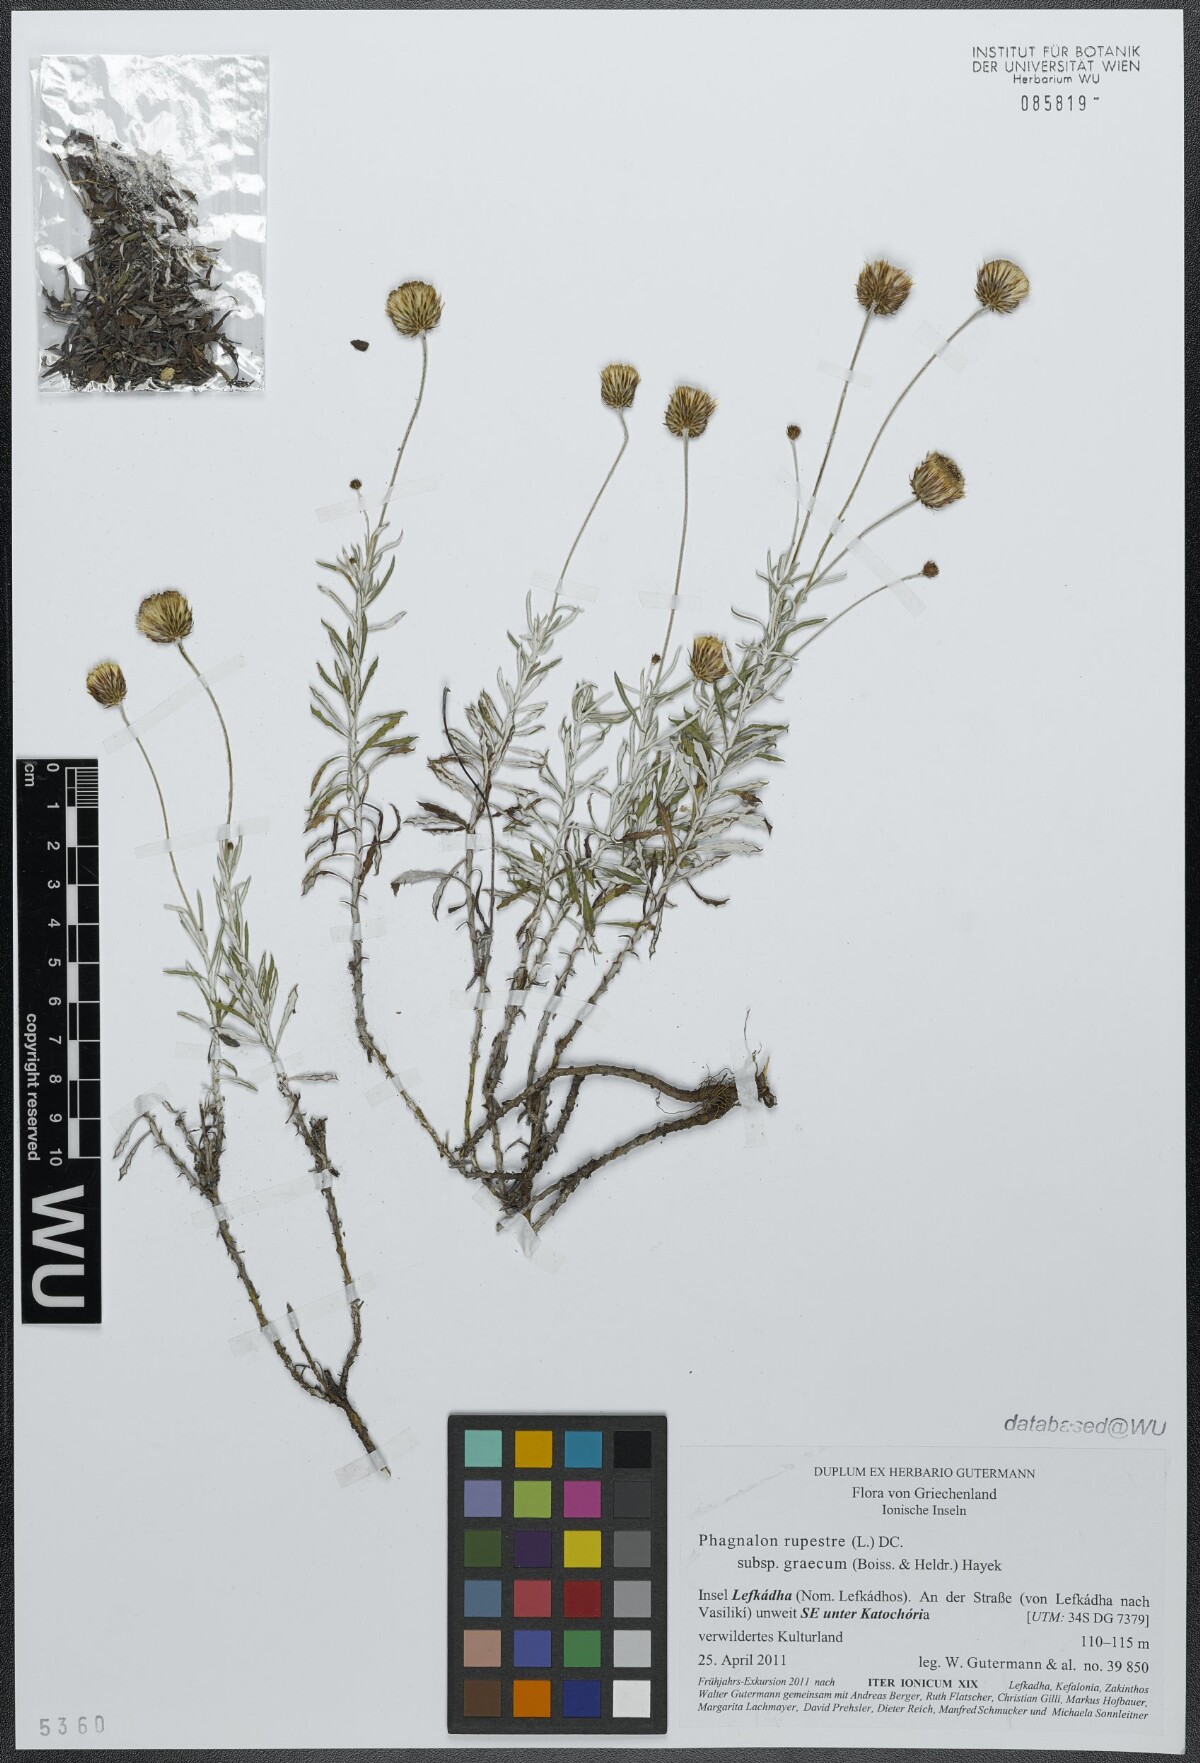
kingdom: Plantae
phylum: Tracheophyta
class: Magnoliopsida
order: Asterales
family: Asteraceae
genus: Phagnalon
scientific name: Phagnalon graecum
